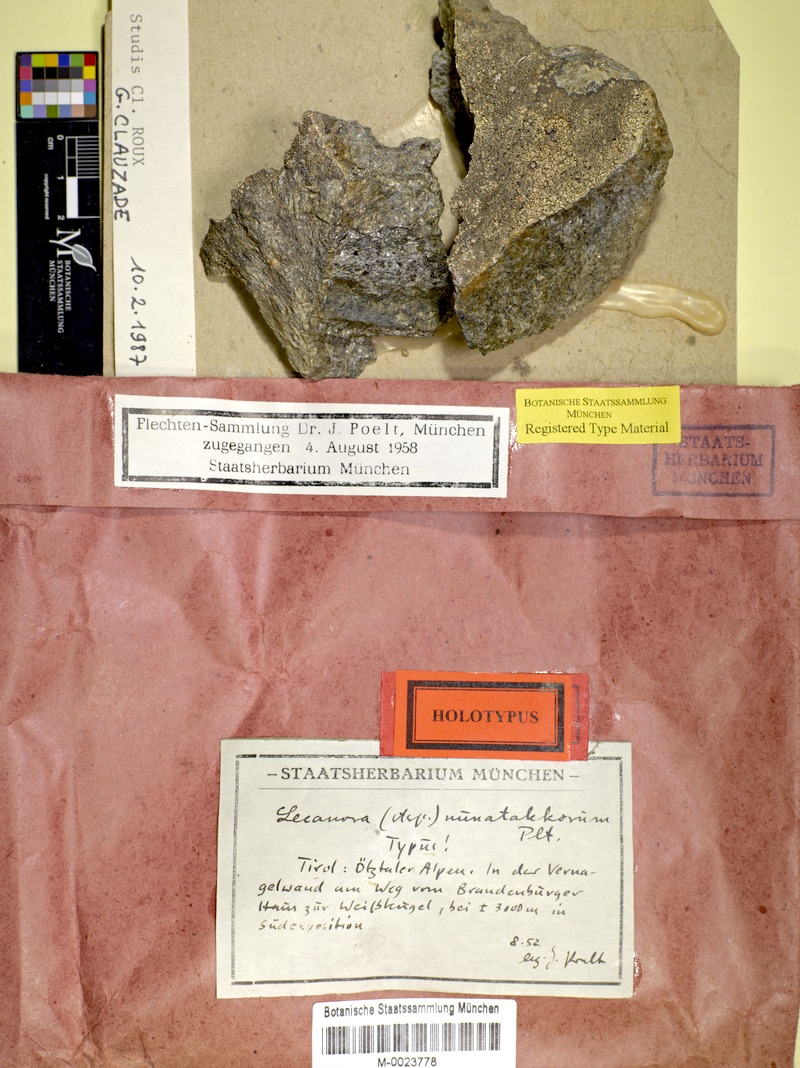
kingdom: Fungi
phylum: Ascomycota
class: Lecanoromycetes
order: Pertusariales
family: Pertusariaceae
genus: Sagedia
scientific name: Sagedia nunatakkorum
